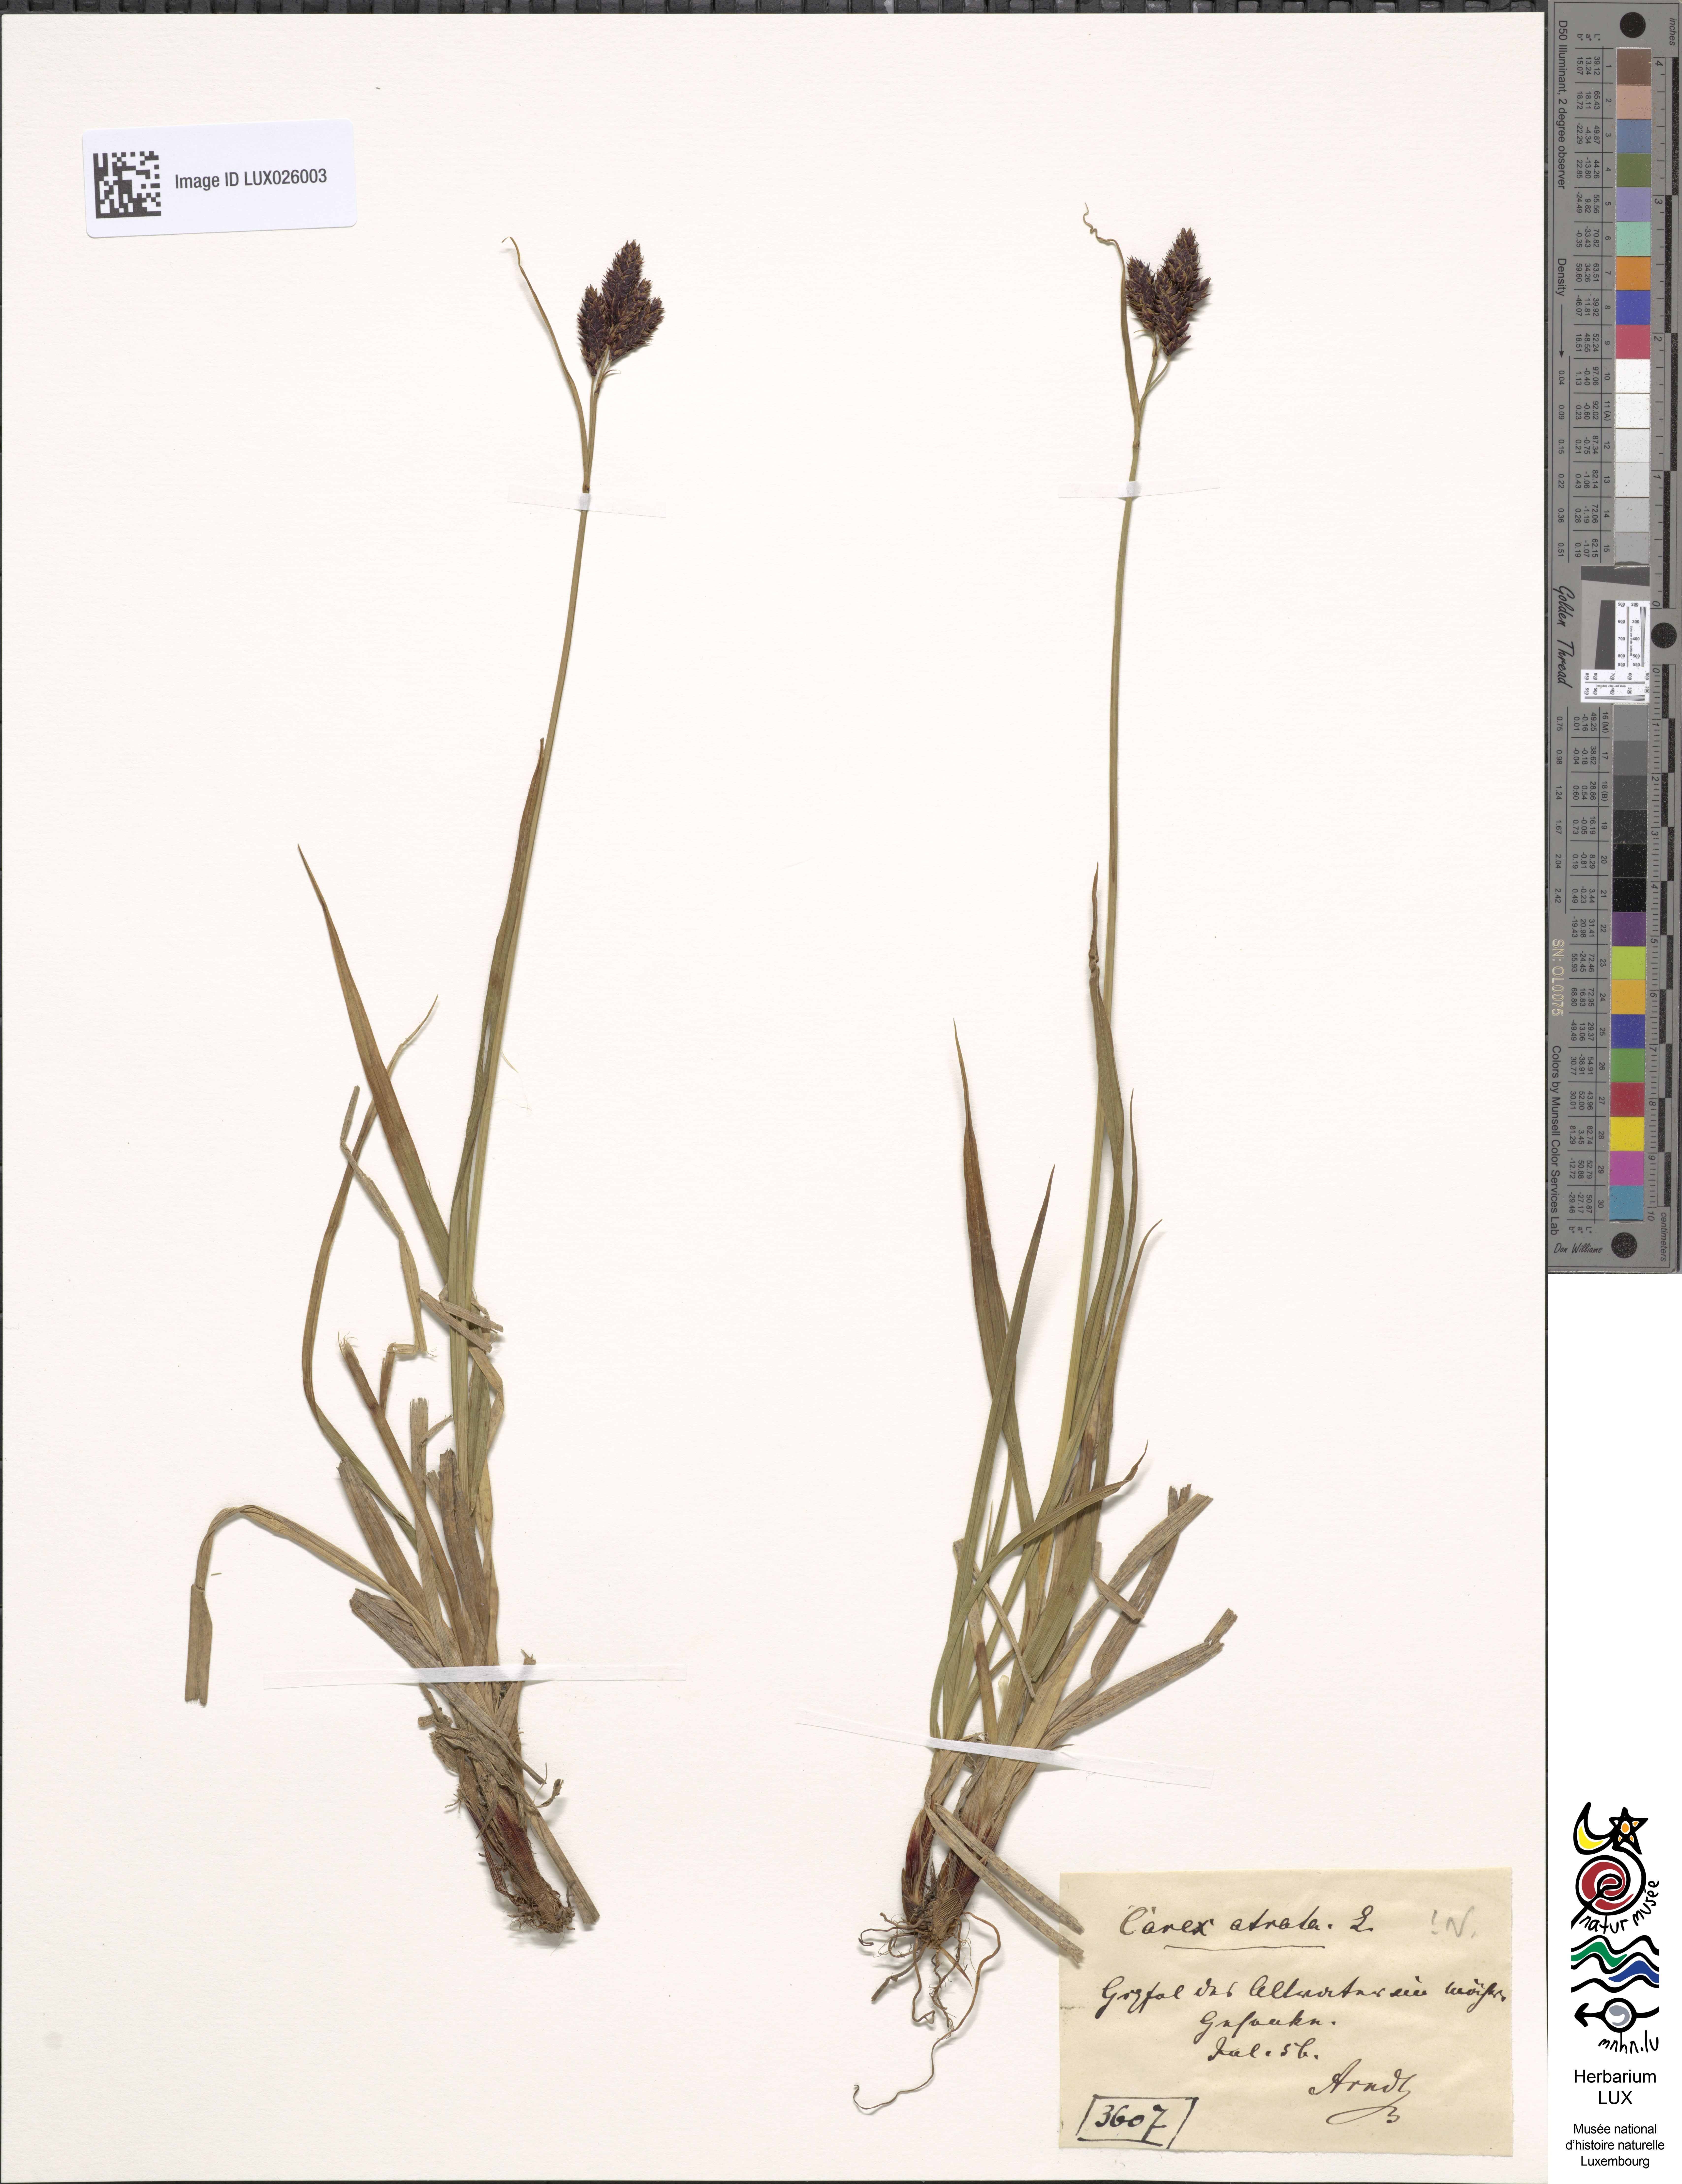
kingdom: Plantae
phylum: Tracheophyta
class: Liliopsida
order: Poales
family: Cyperaceae
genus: Carex
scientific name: Carex atrata
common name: Black alpine sedge
